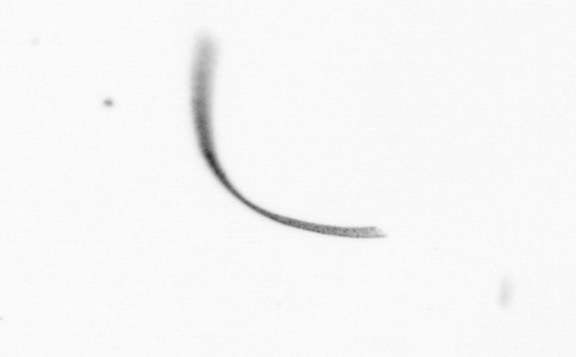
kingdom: Chromista
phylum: Ochrophyta
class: Bacillariophyceae
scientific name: Bacillariophyceae
